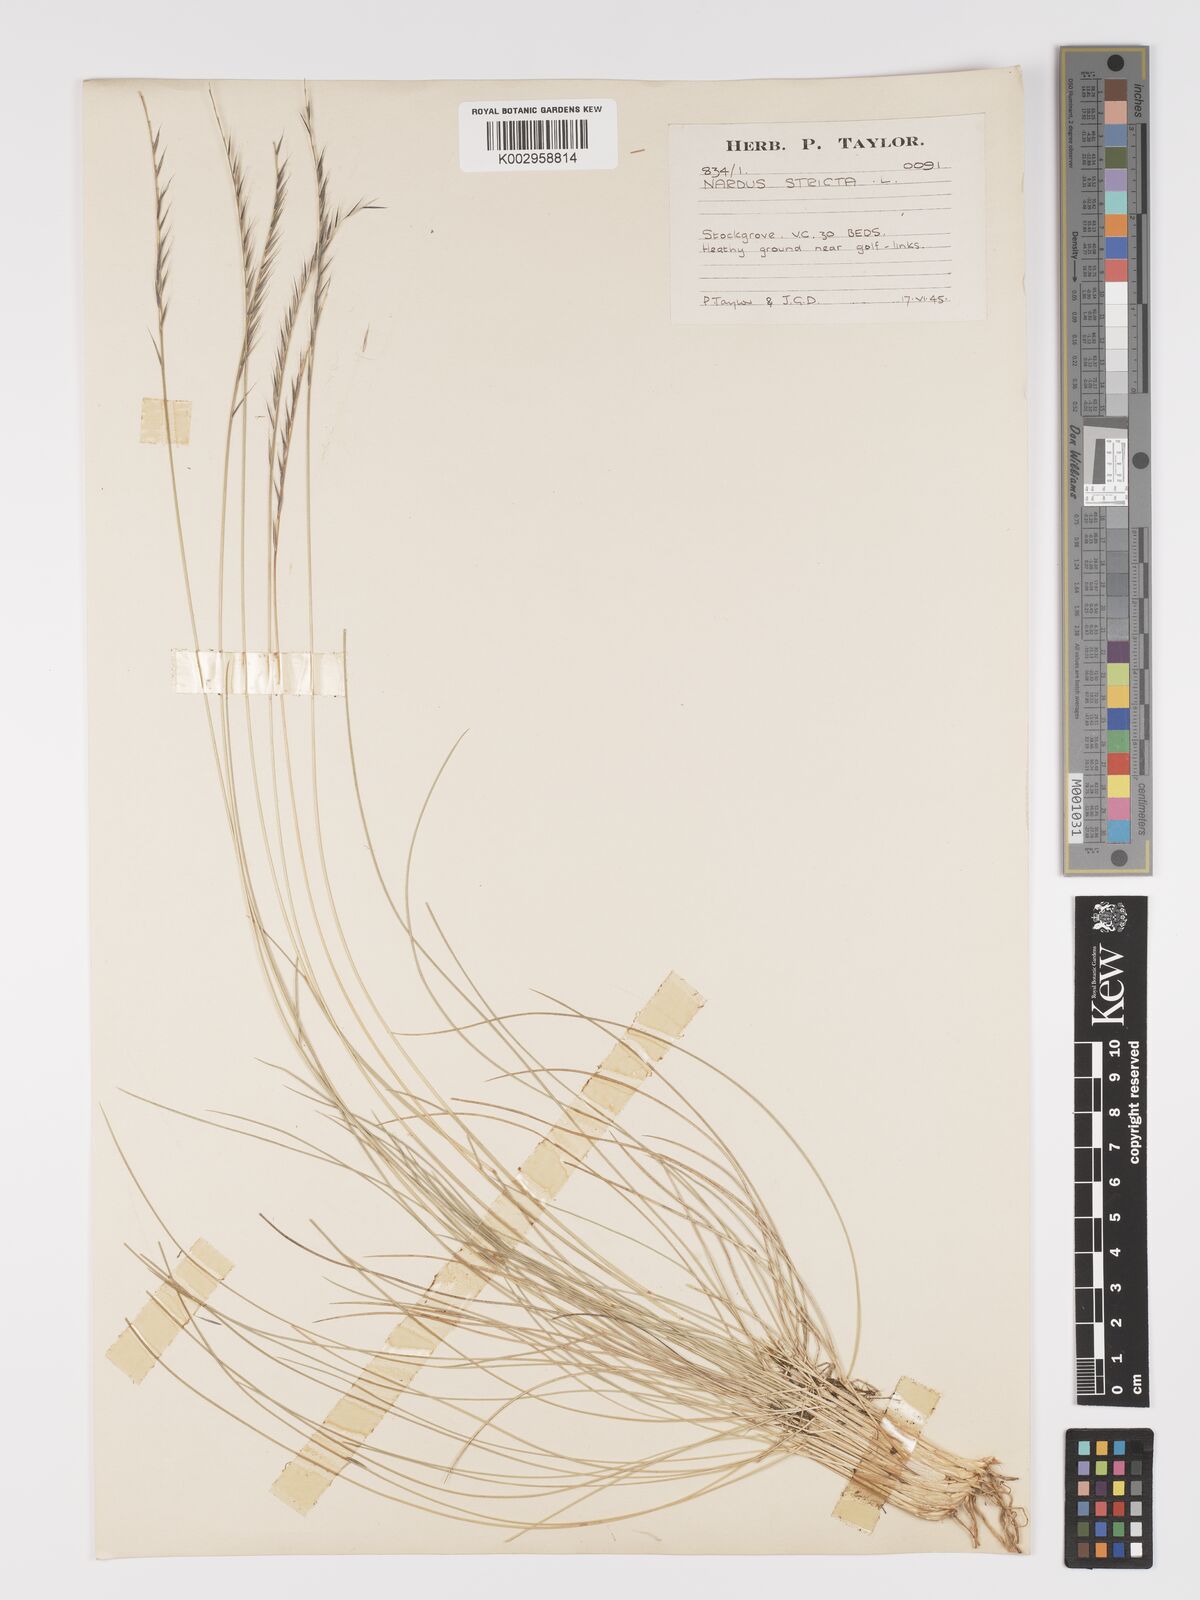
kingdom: Plantae
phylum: Tracheophyta
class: Liliopsida
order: Poales
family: Poaceae
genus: Nardus
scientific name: Nardus stricta
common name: Mat-grass
